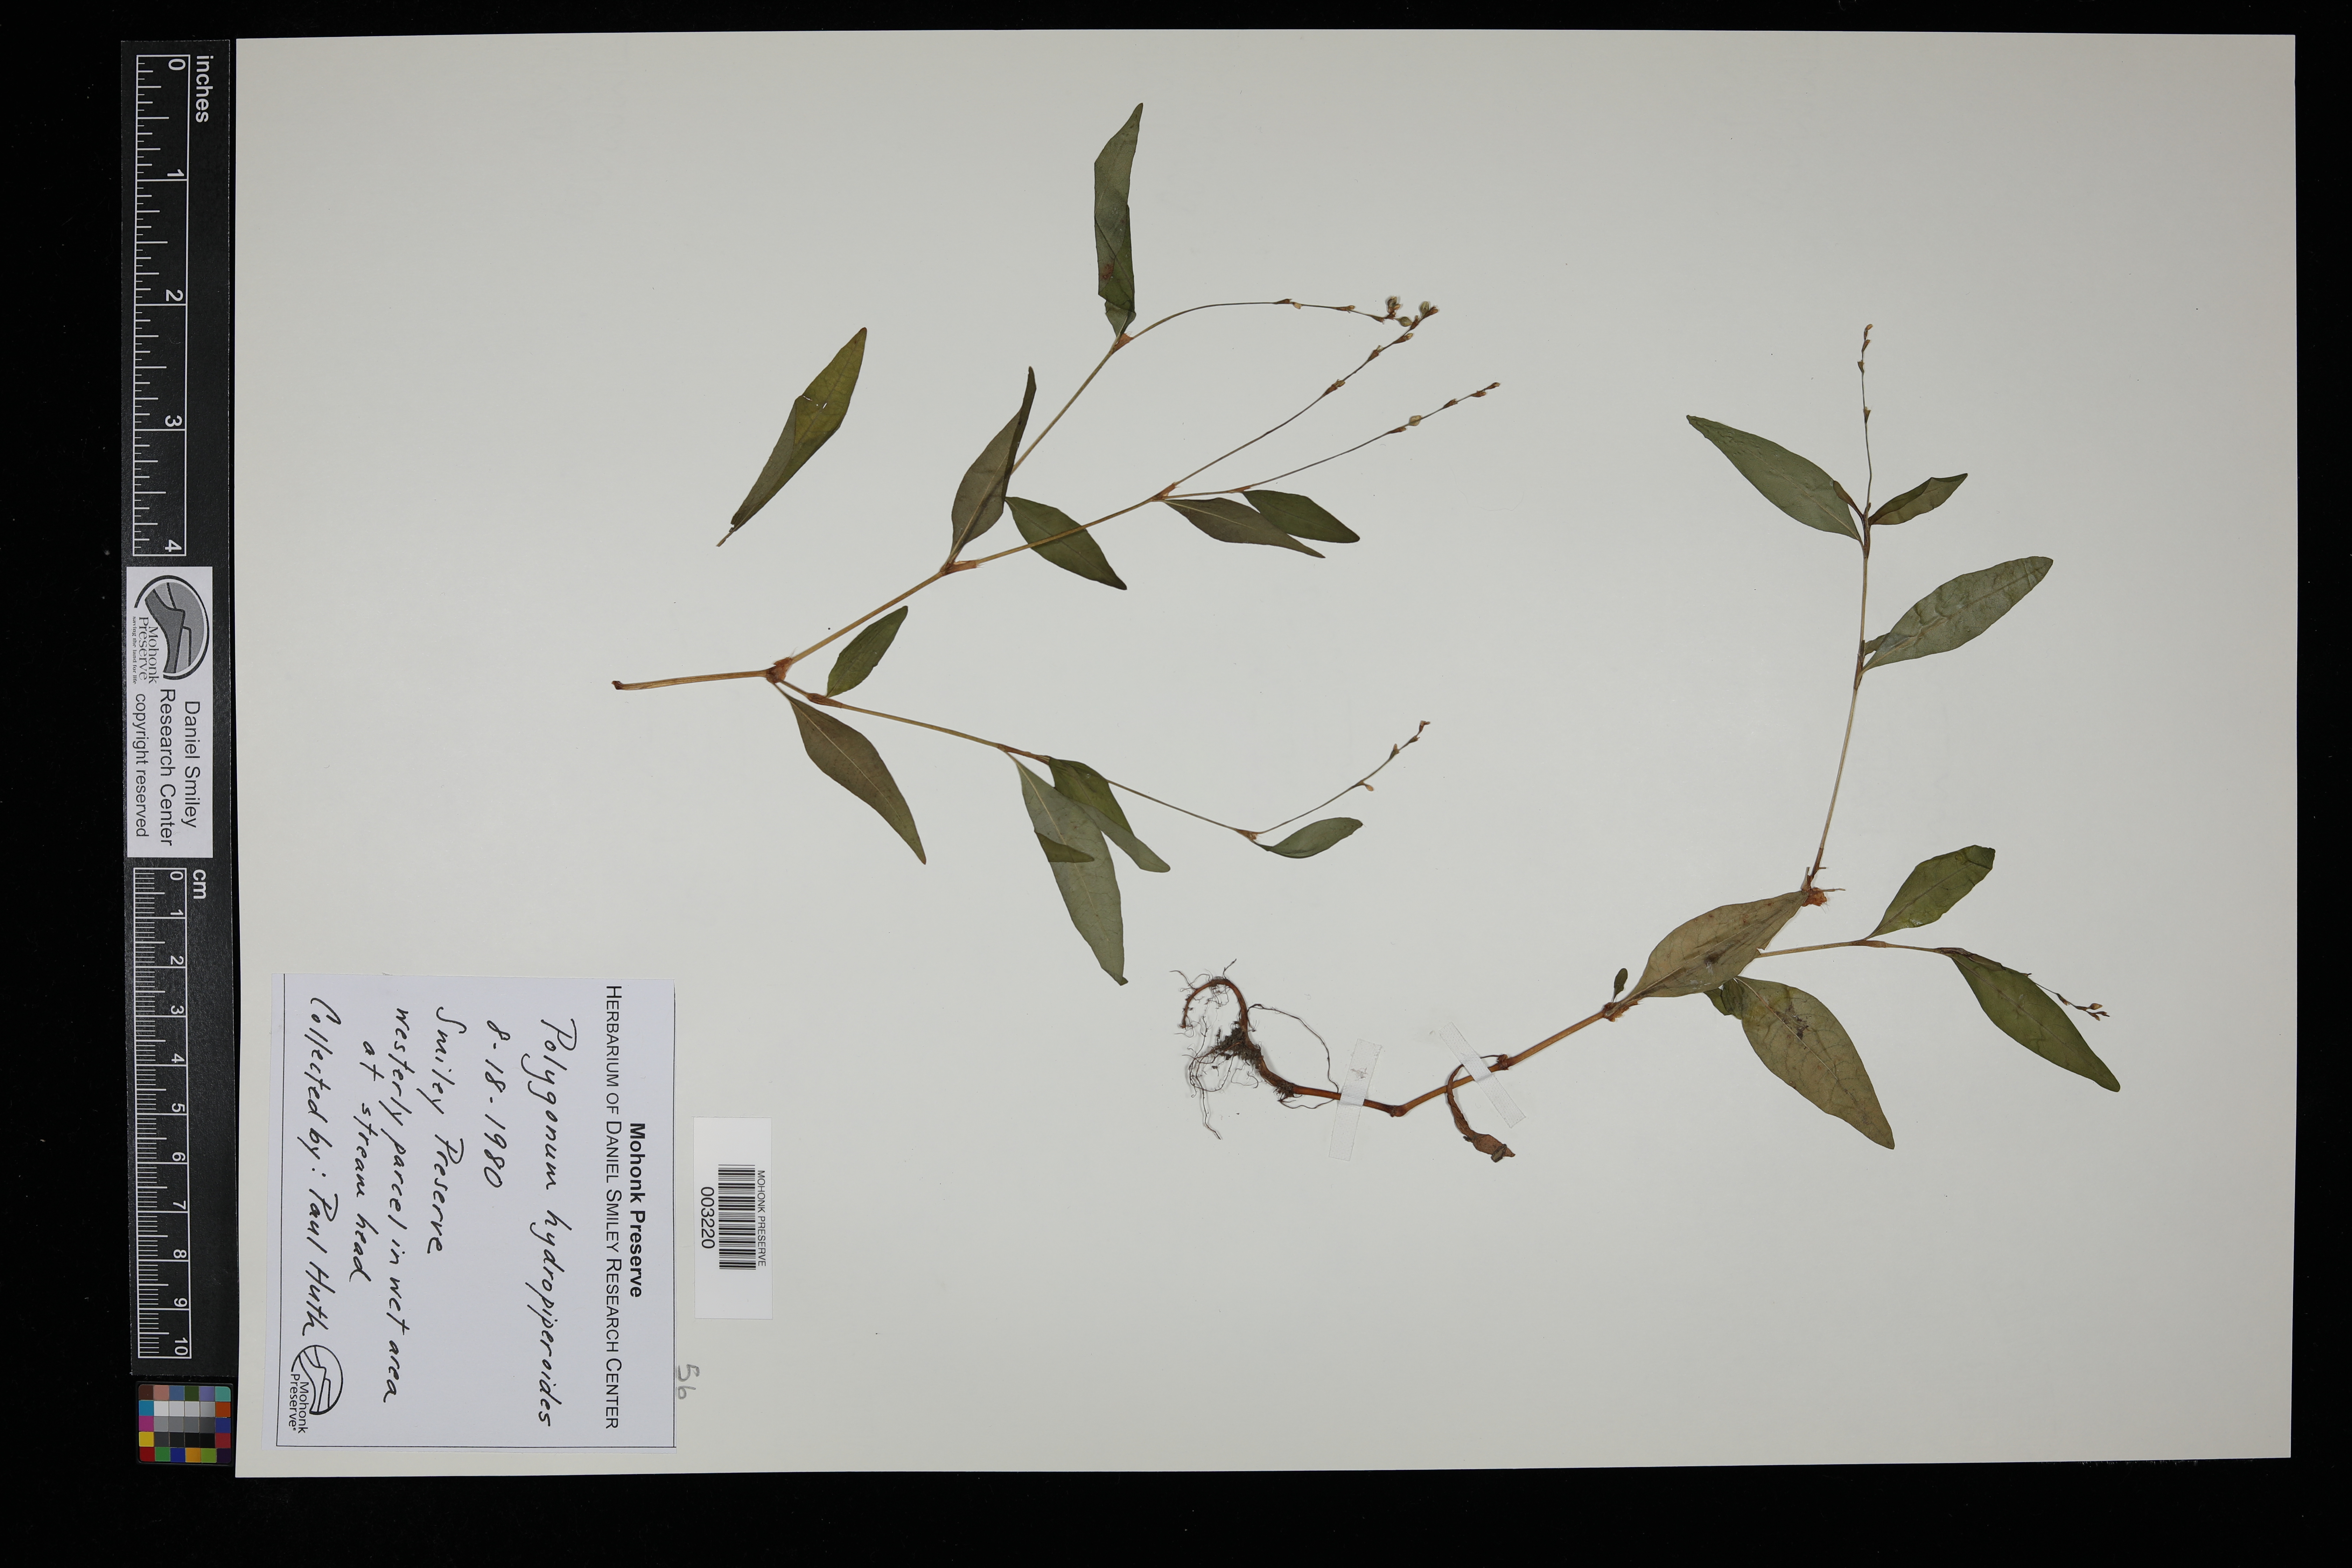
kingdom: Plantae
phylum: Tracheophyta
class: Magnoliopsida
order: Caryophyllales
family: Polygonaceae
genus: Persicaria
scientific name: Persicaria hydropiperoides
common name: Swamp smartweed
